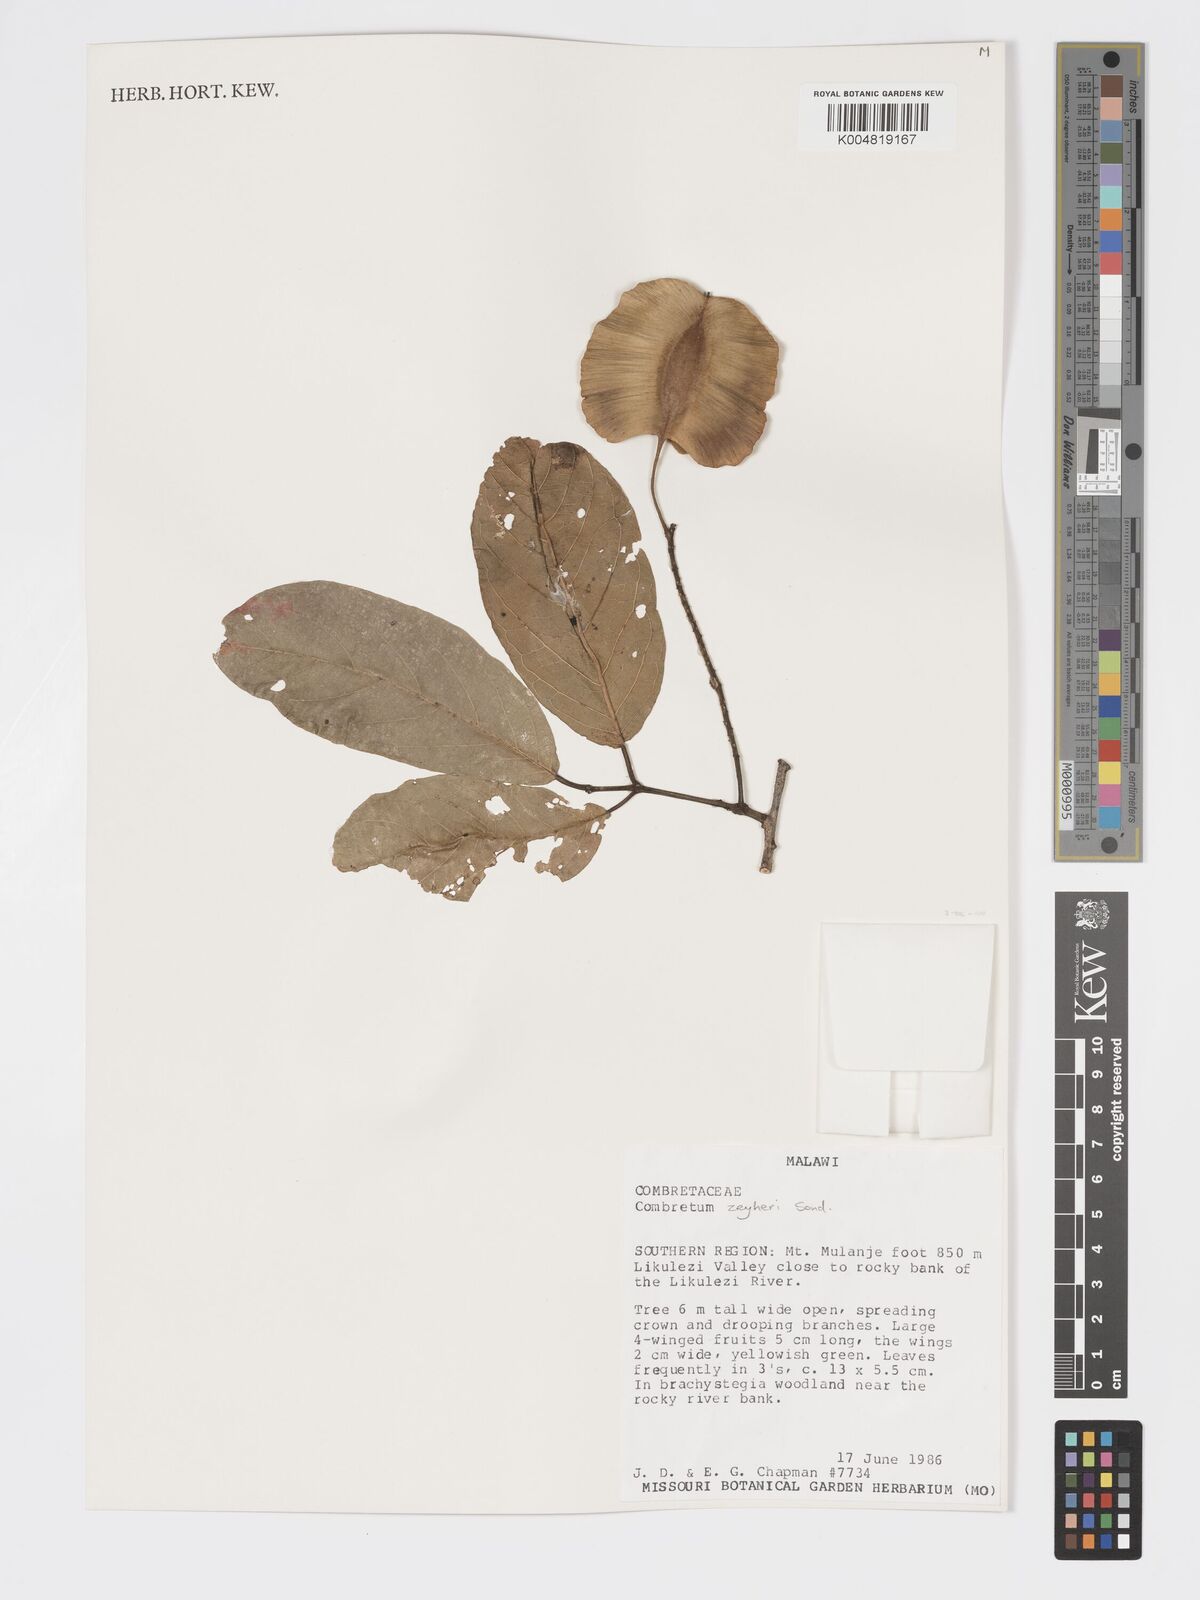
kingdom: Plantae
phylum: Tracheophyta
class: Magnoliopsida
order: Myrtales
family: Combretaceae
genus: Combretum
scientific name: Combretum zeyheri
